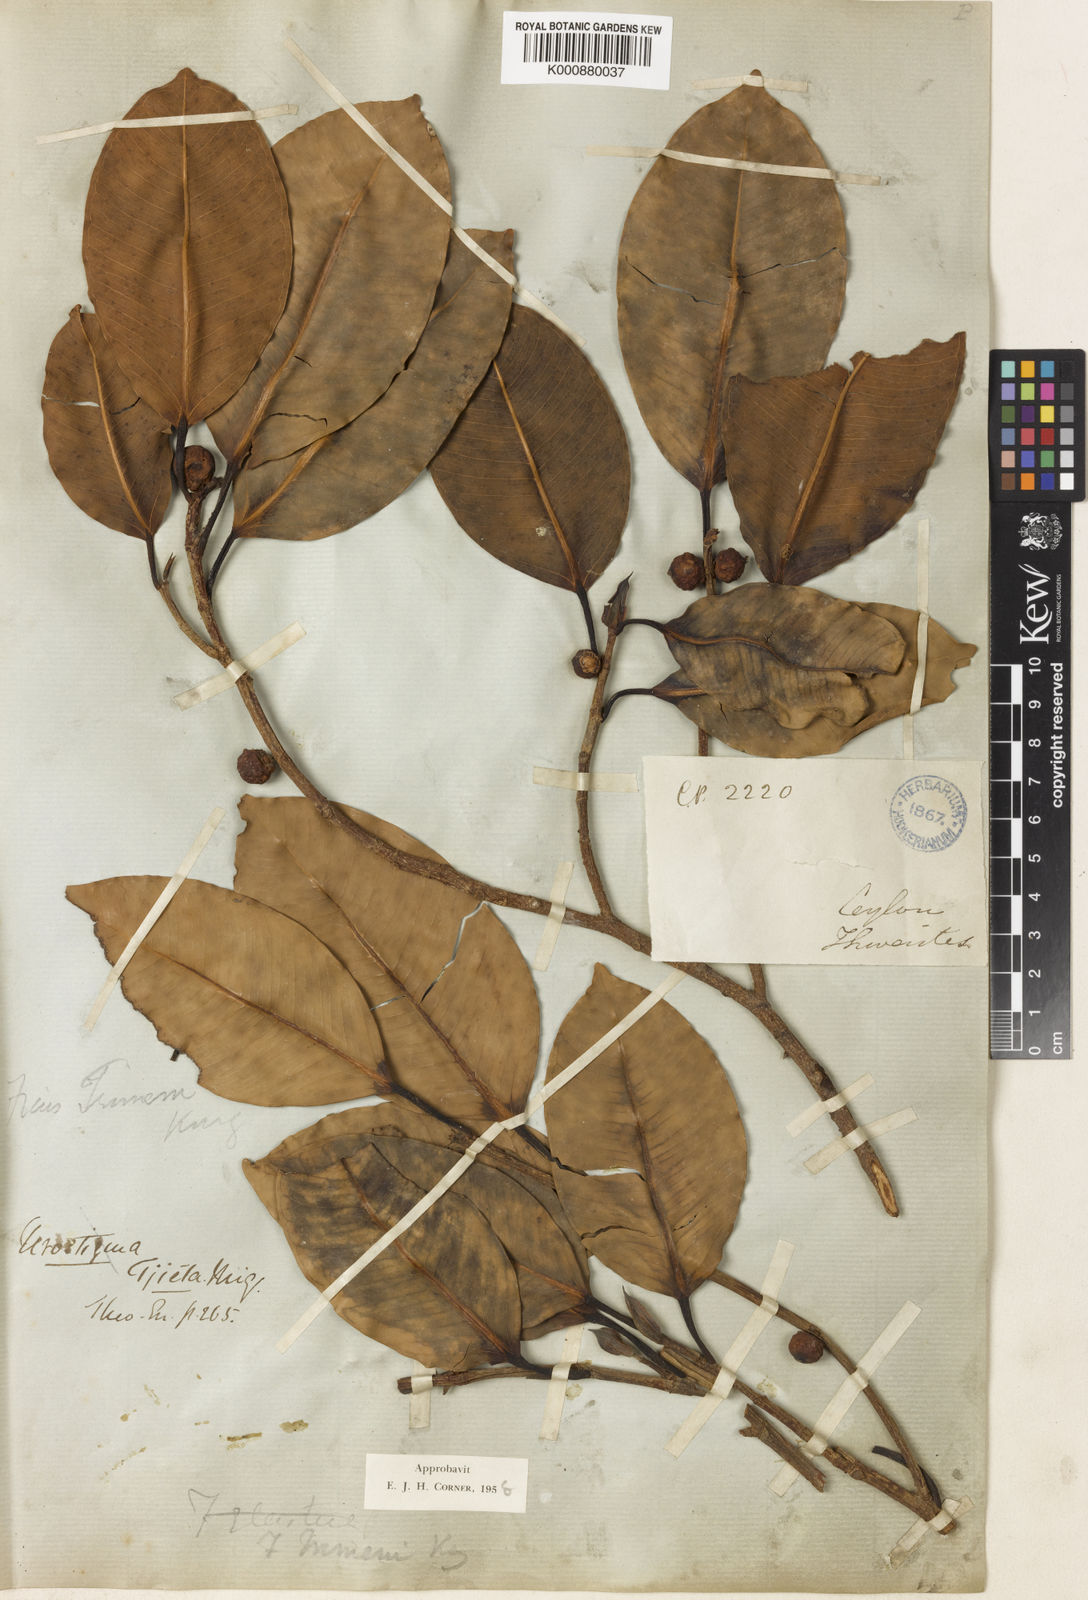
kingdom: Plantae
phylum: Tracheophyta
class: Magnoliopsida
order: Rosales
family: Moraceae
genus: Ficus
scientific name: Ficus trimenii
